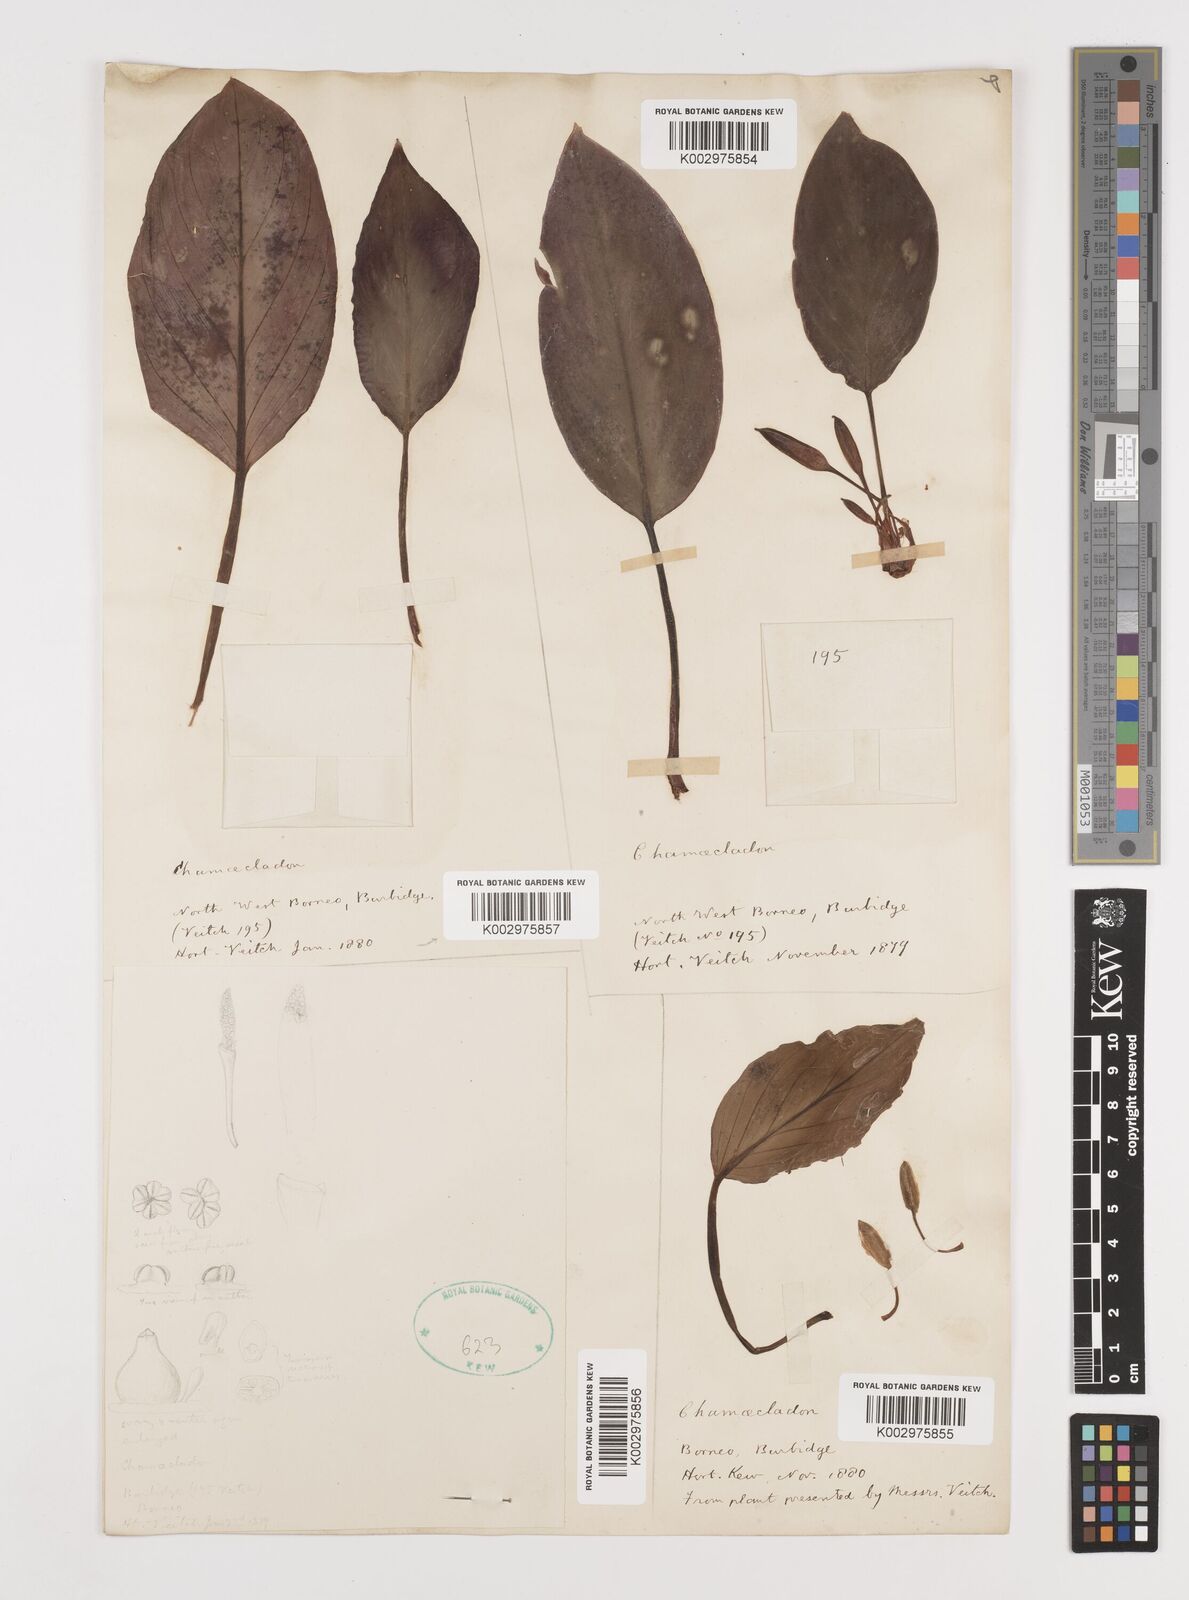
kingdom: Plantae
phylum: Tracheophyta
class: Liliopsida
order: Alismatales
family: Araceae
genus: Homalomena
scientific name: Homalomena
